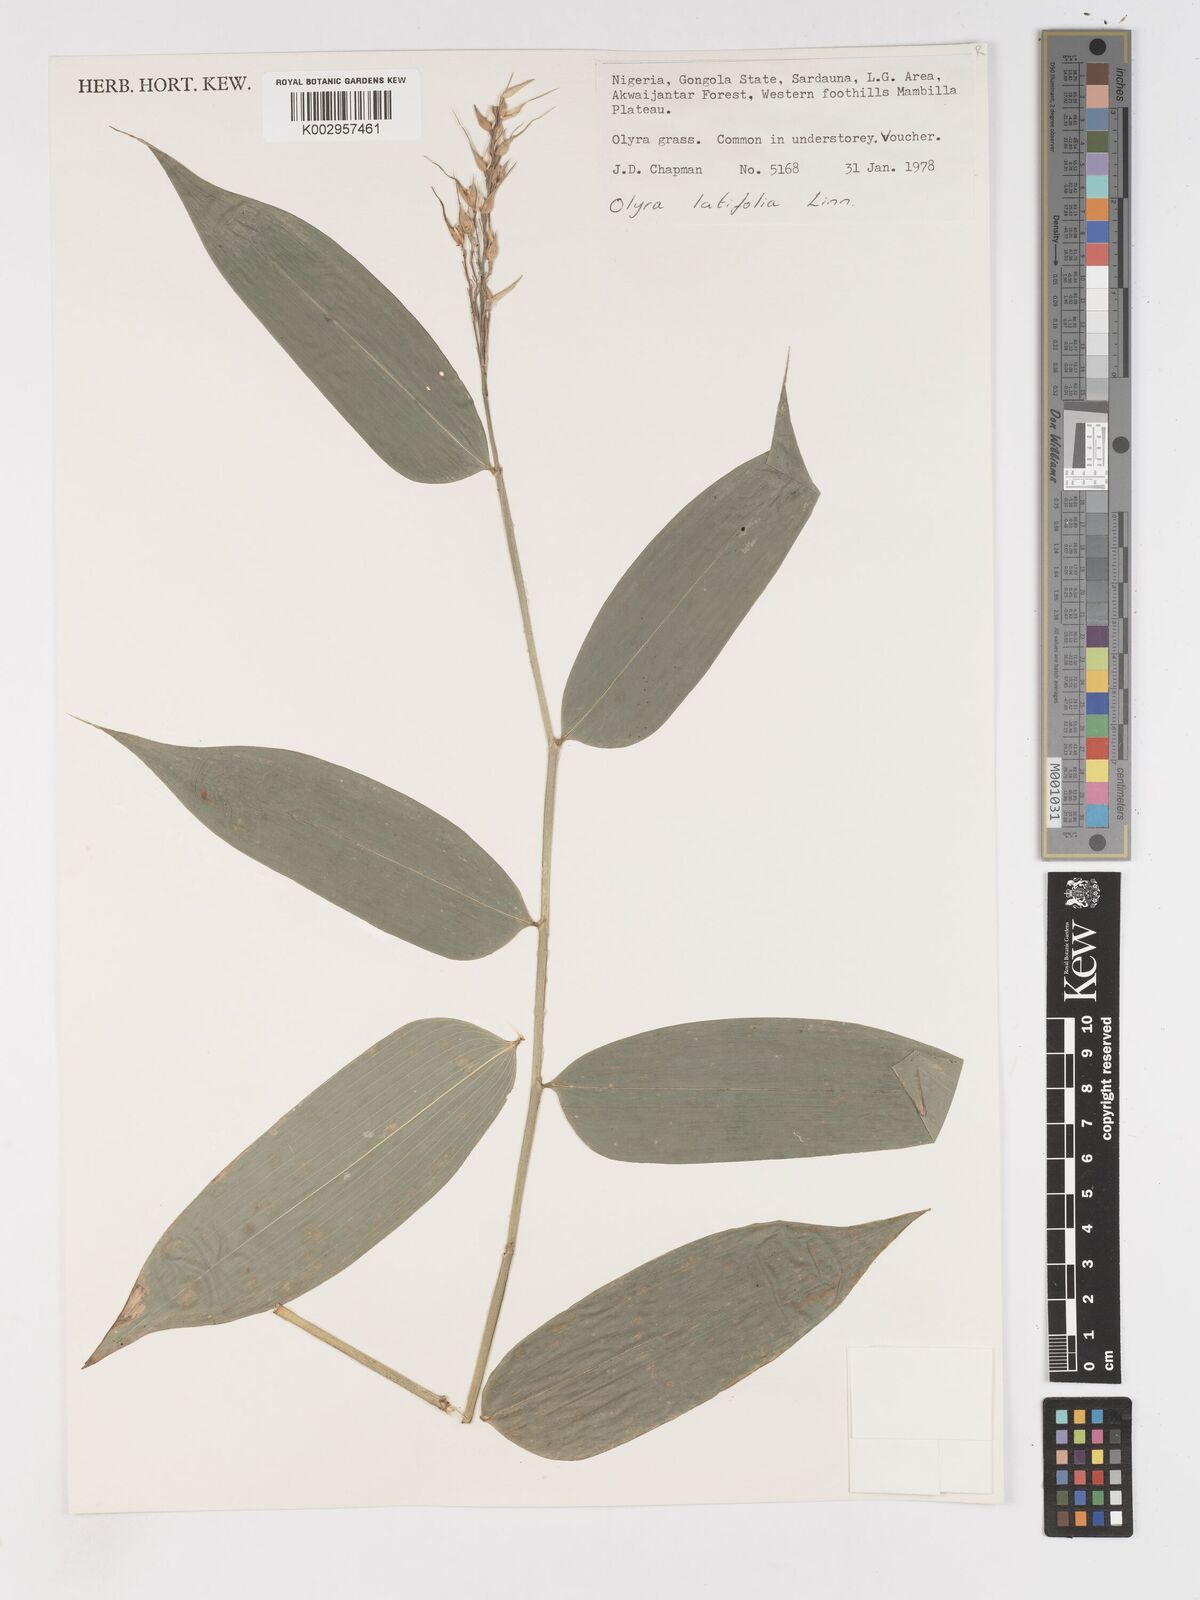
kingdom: Plantae
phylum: Tracheophyta
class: Liliopsida
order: Poales
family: Poaceae
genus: Olyra
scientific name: Olyra latifolia
